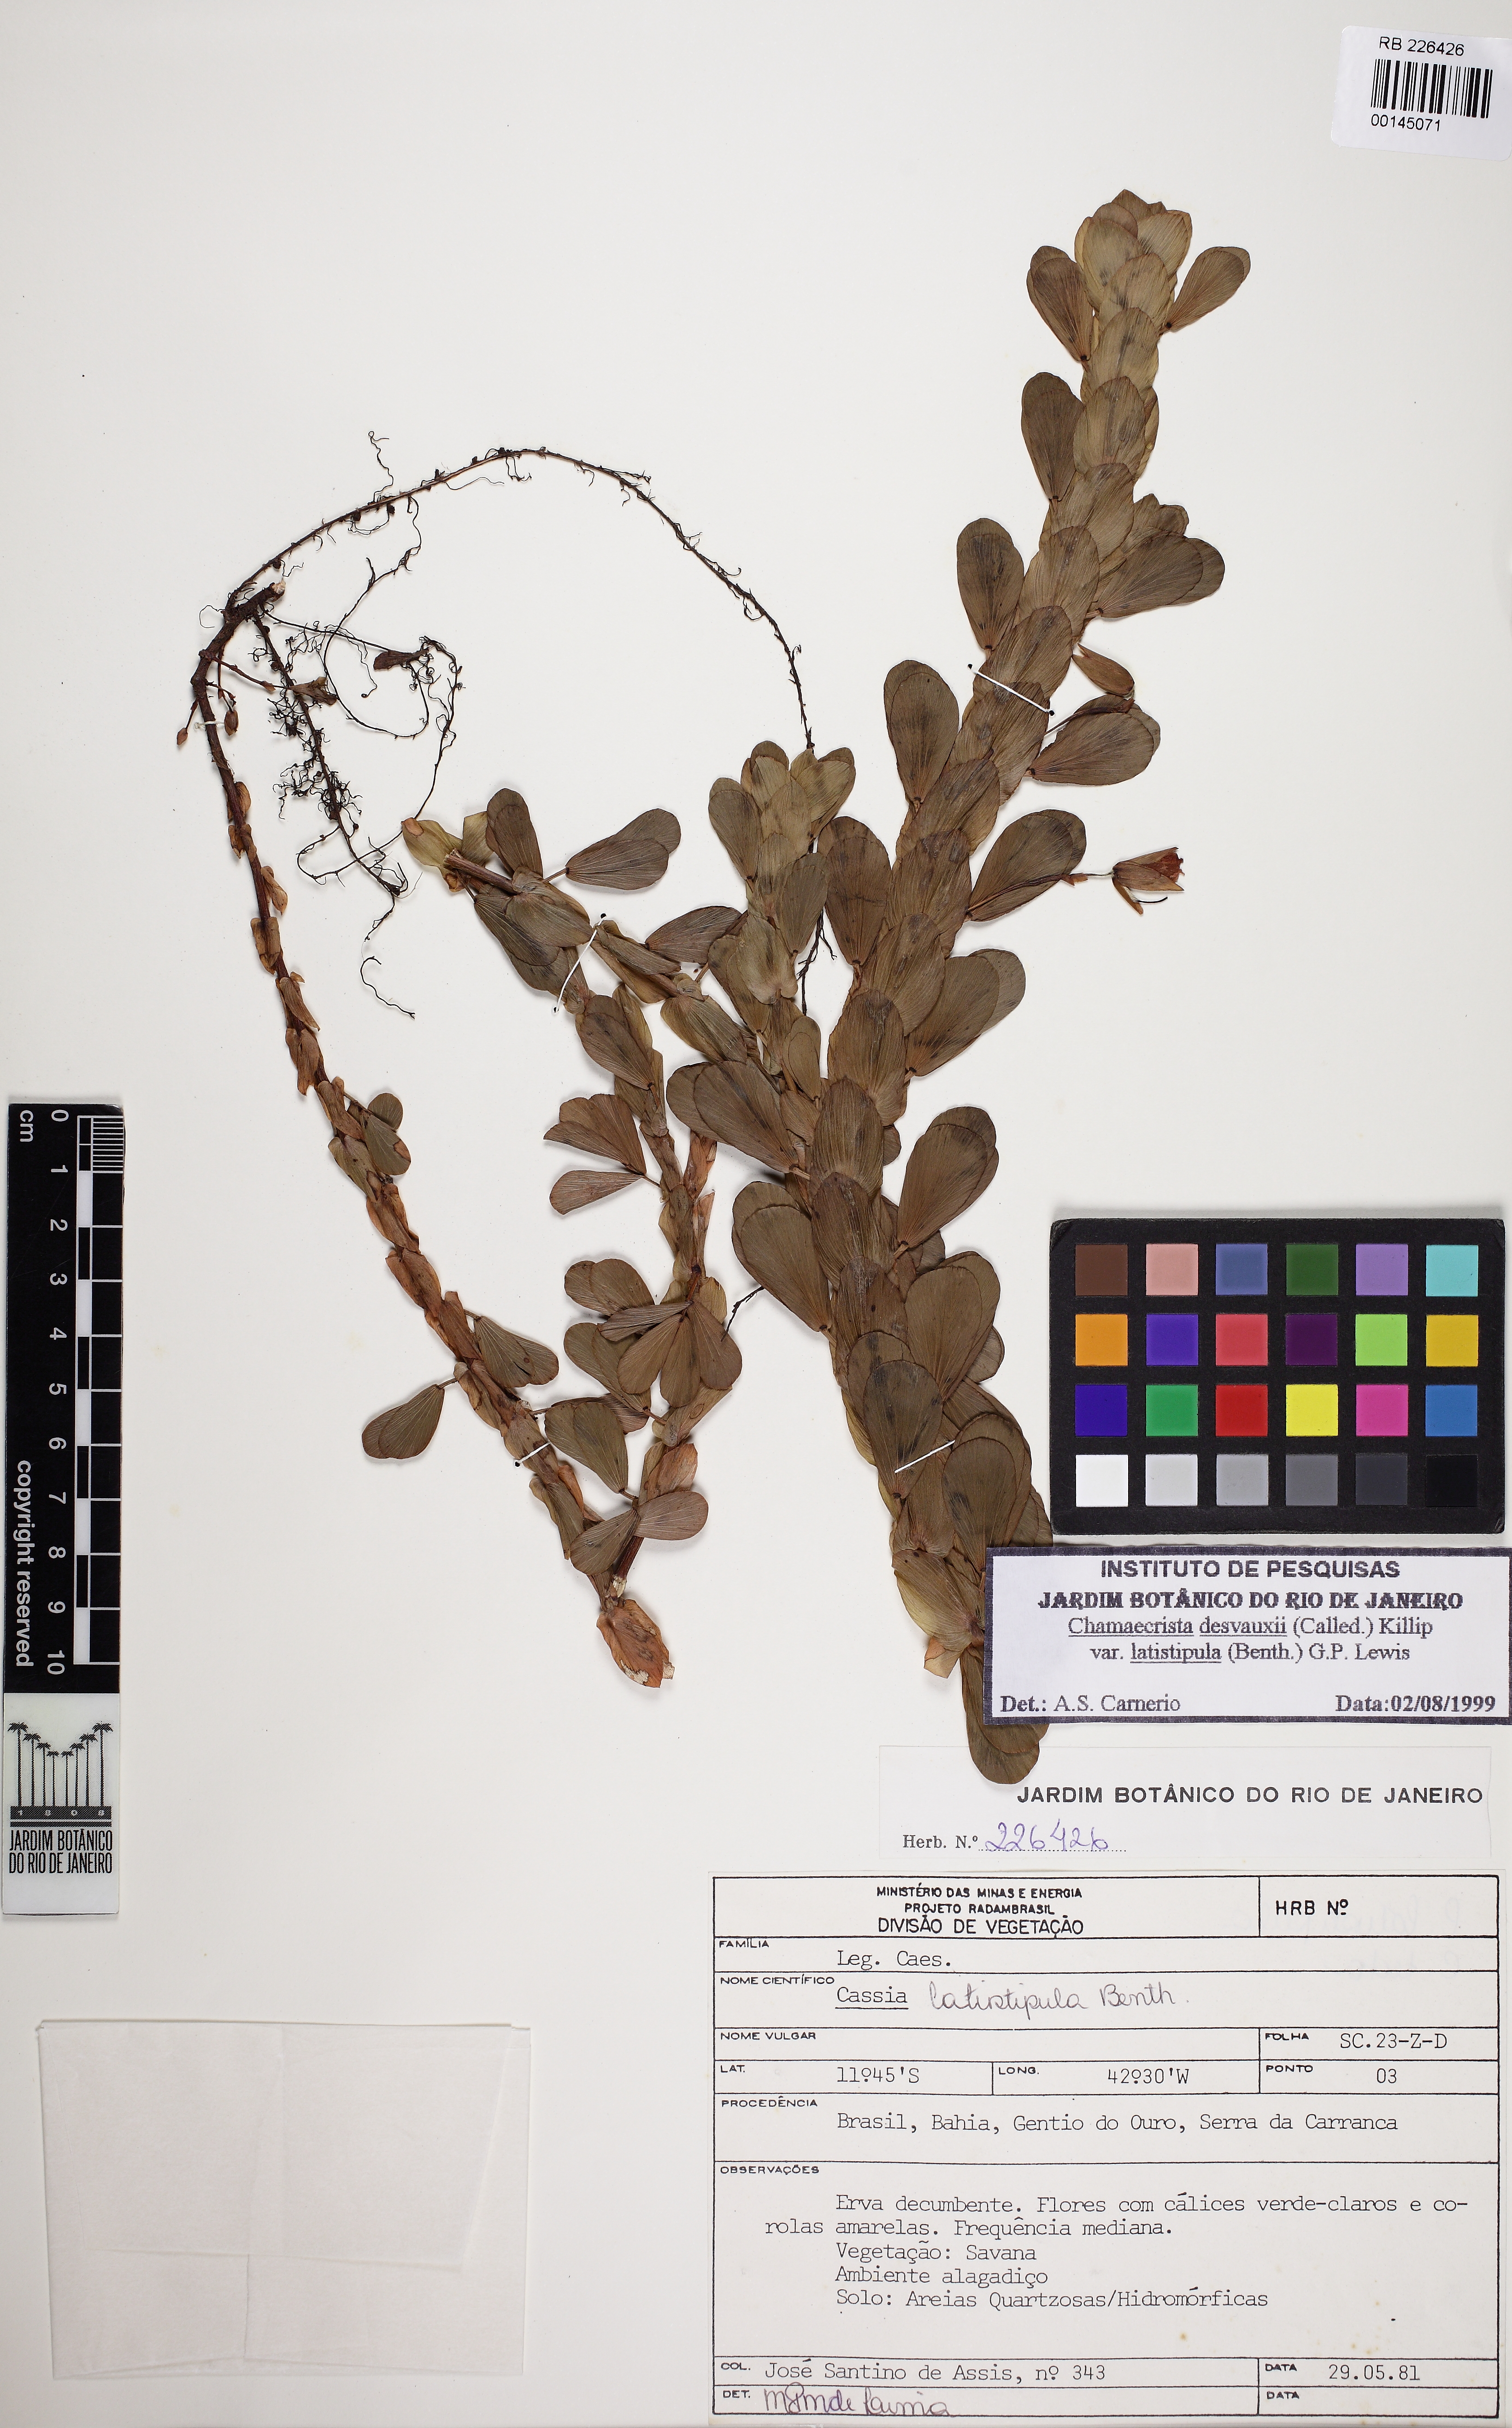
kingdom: Plantae
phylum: Tracheophyta
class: Magnoliopsida
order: Fabales
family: Fabaceae
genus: Chamaecrista
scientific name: Chamaecrista desvauxii
